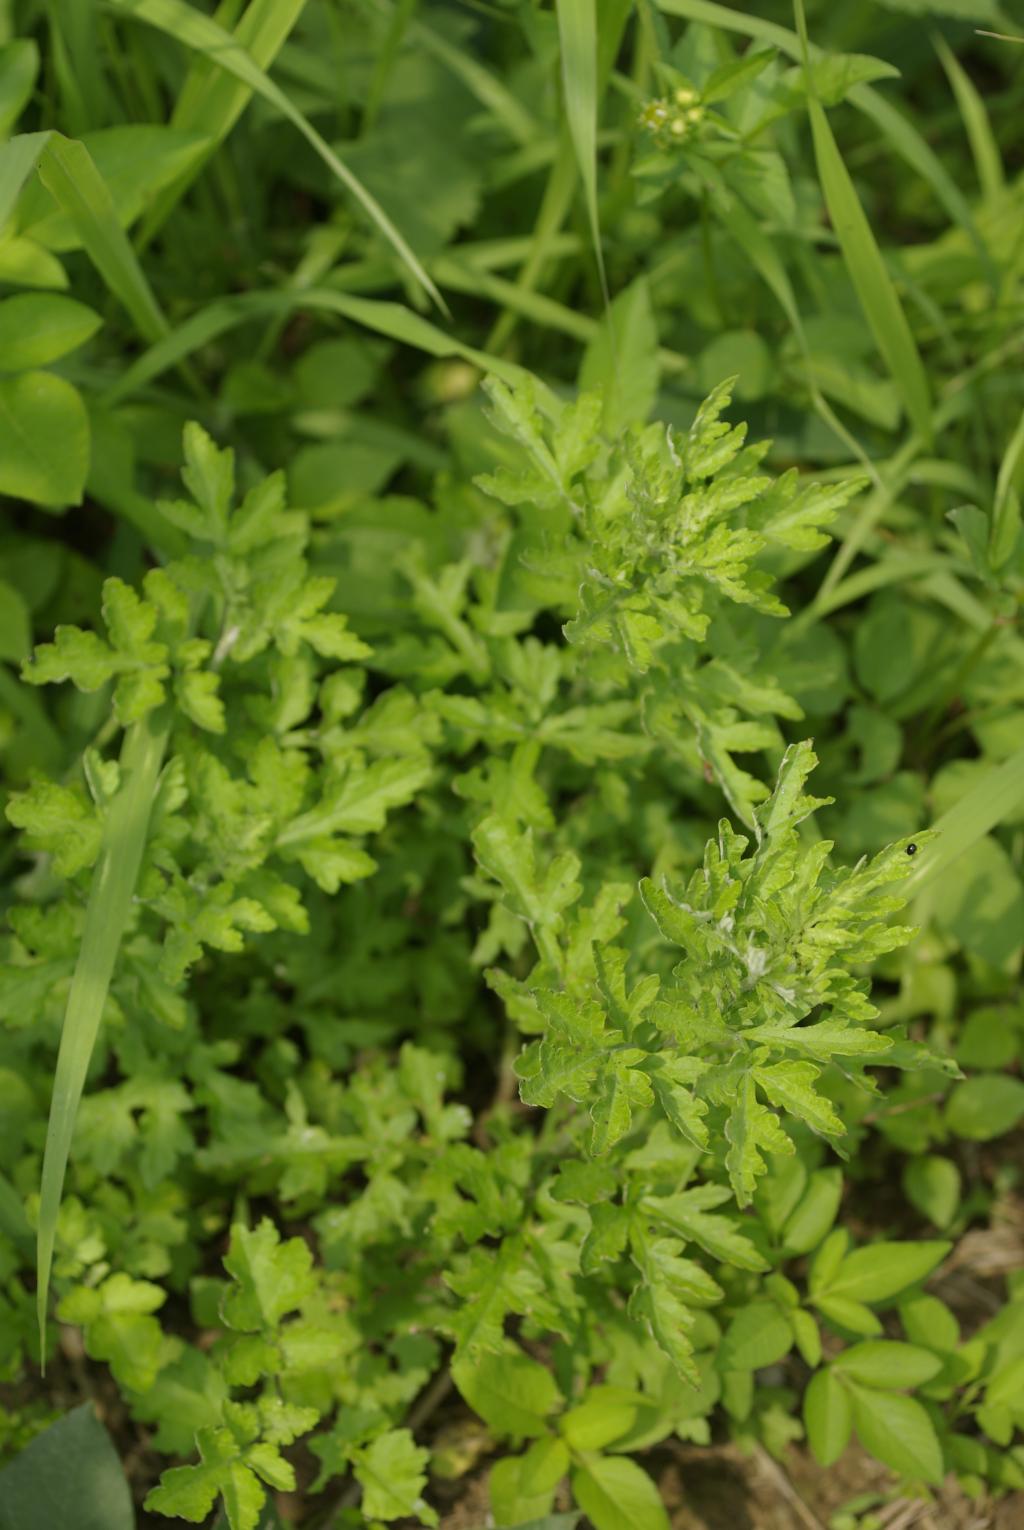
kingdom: Plantae
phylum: Tracheophyta
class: Magnoliopsida
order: Asterales
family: Asteraceae
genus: Artemisia
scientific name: Artemisia indica
